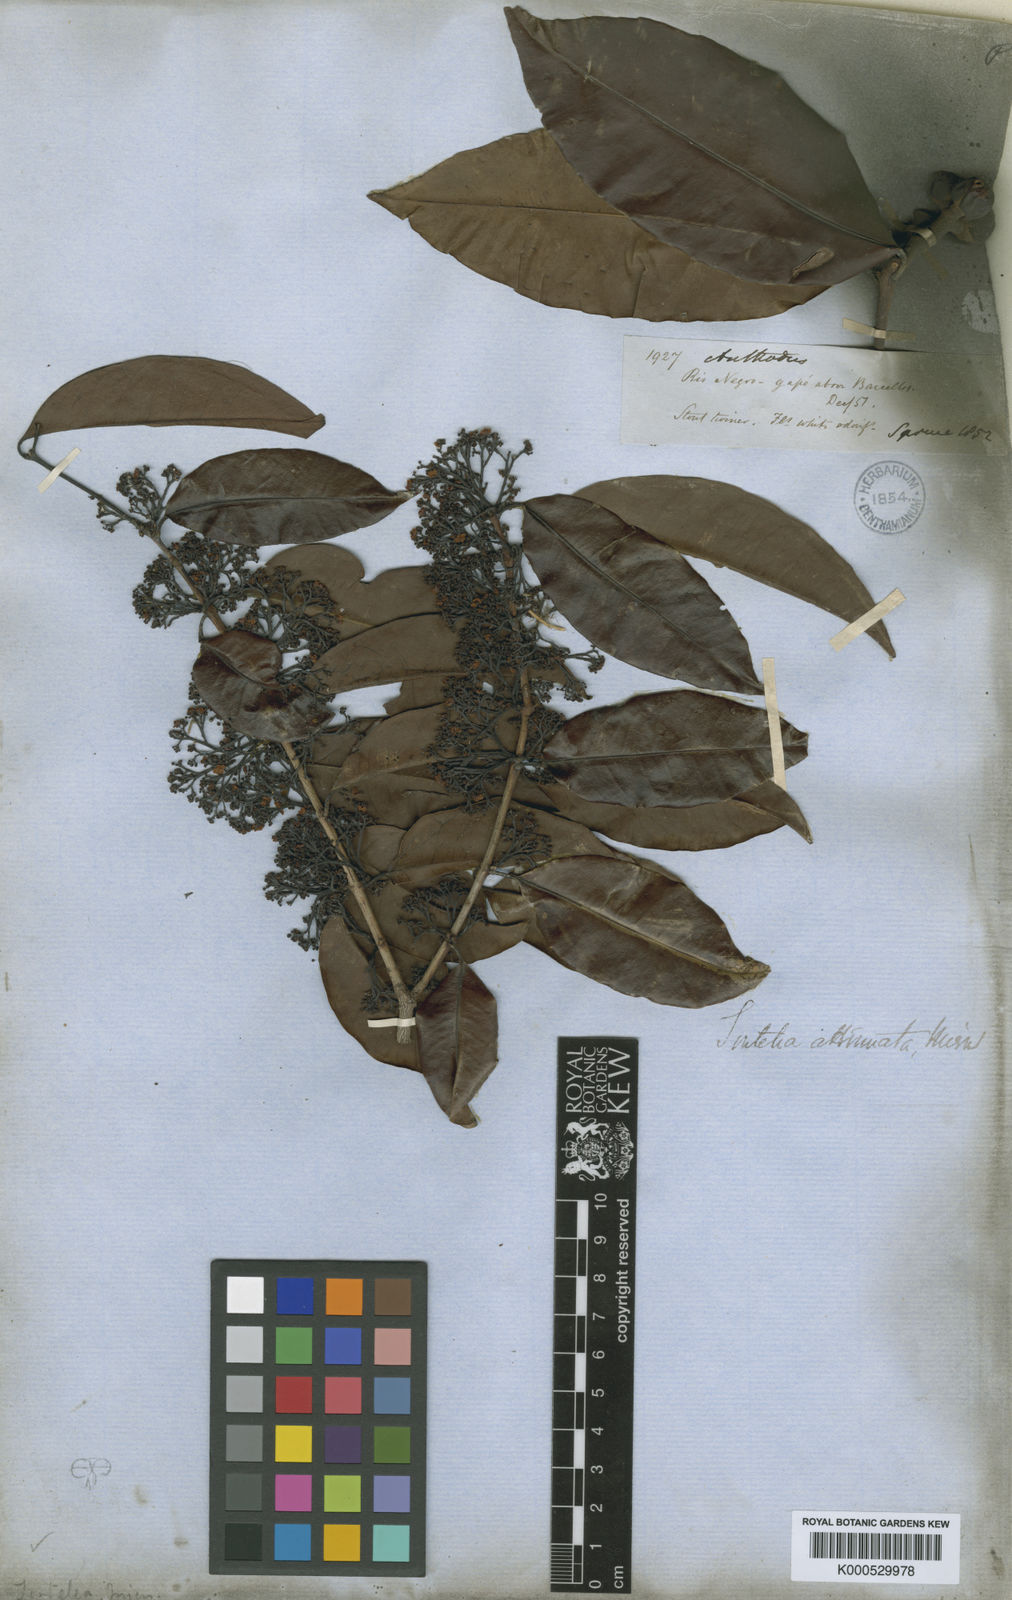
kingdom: Plantae
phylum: Tracheophyta
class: Magnoliopsida
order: Celastrales
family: Celastraceae
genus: Tontelea
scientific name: Tontelea attenuata
